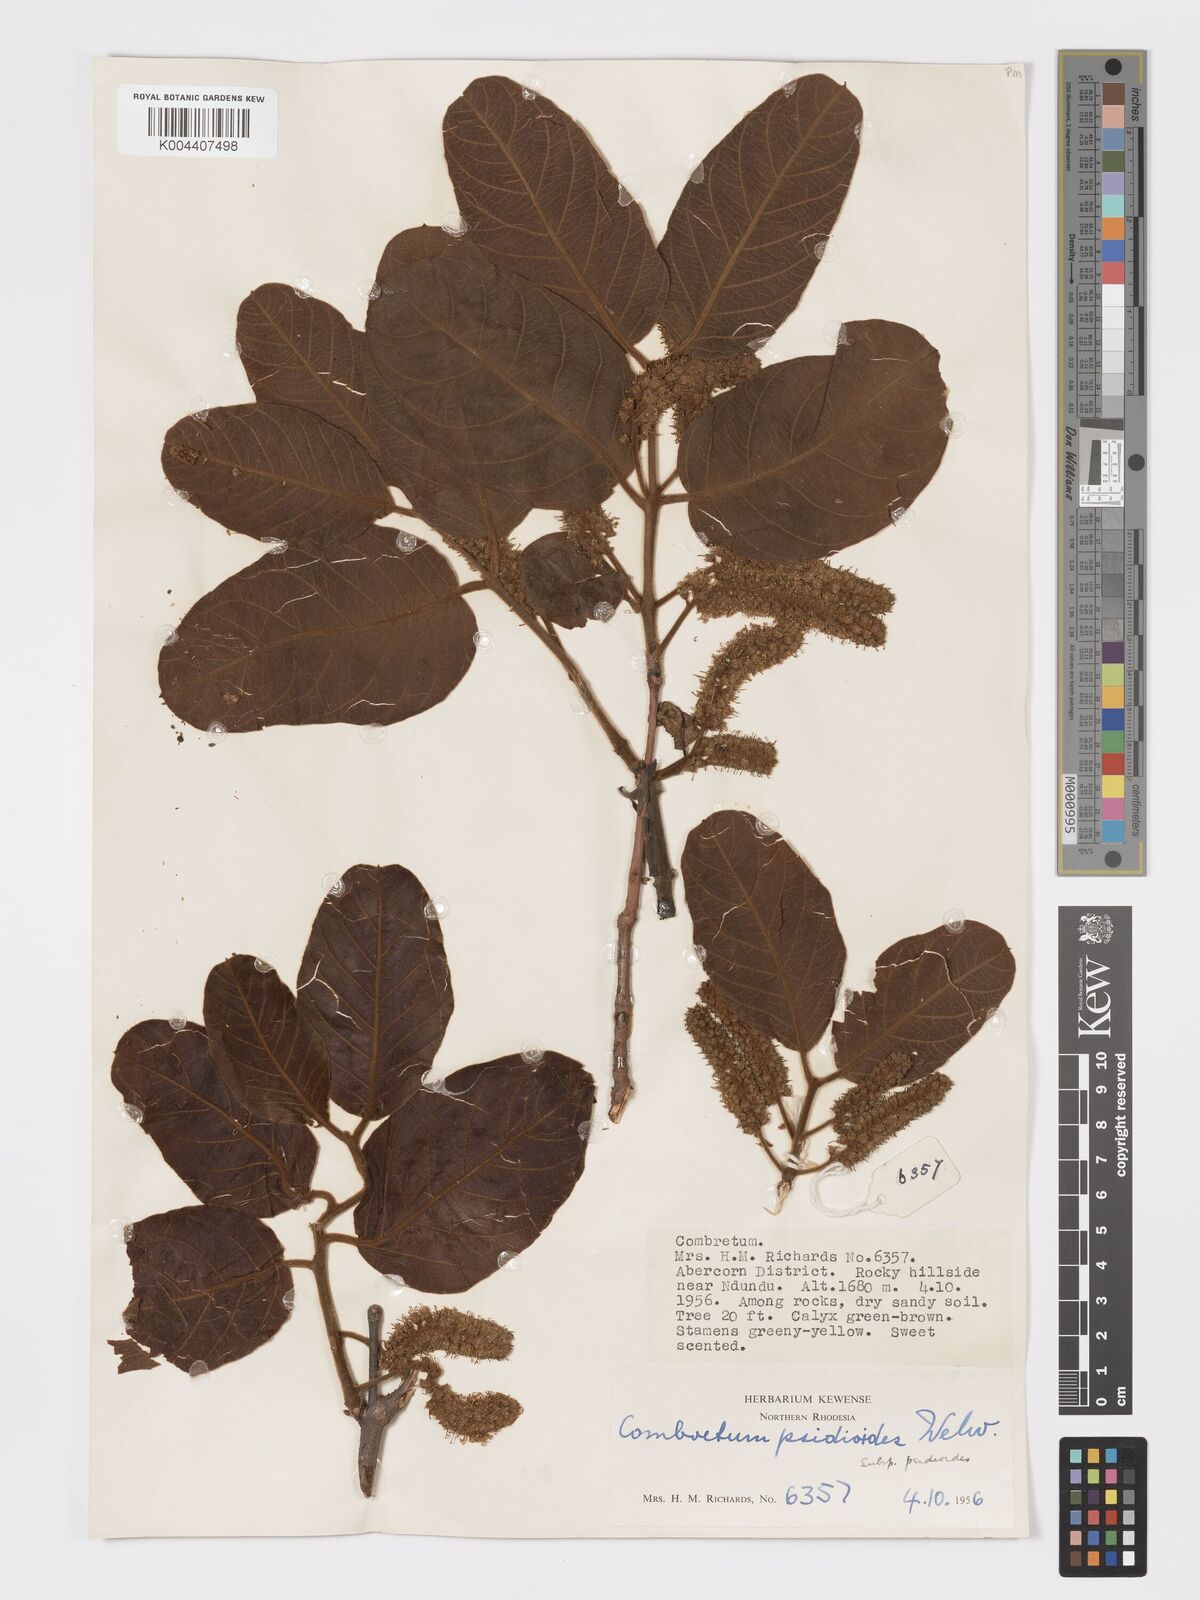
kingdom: Plantae
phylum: Tracheophyta
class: Magnoliopsida
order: Myrtales
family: Combretaceae
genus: Combretum
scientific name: Combretum psidioides
